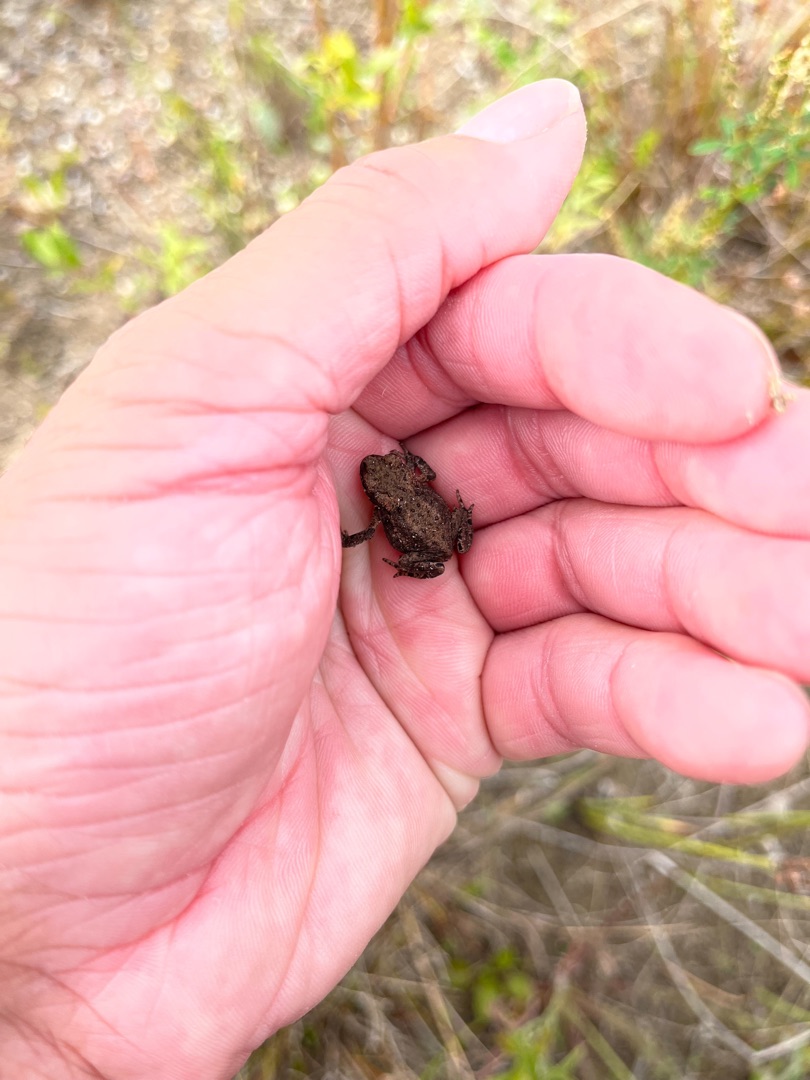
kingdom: Animalia
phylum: Chordata
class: Amphibia
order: Anura
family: Bufonidae
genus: Bufo
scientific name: Bufo bufo
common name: Skrubtudse
